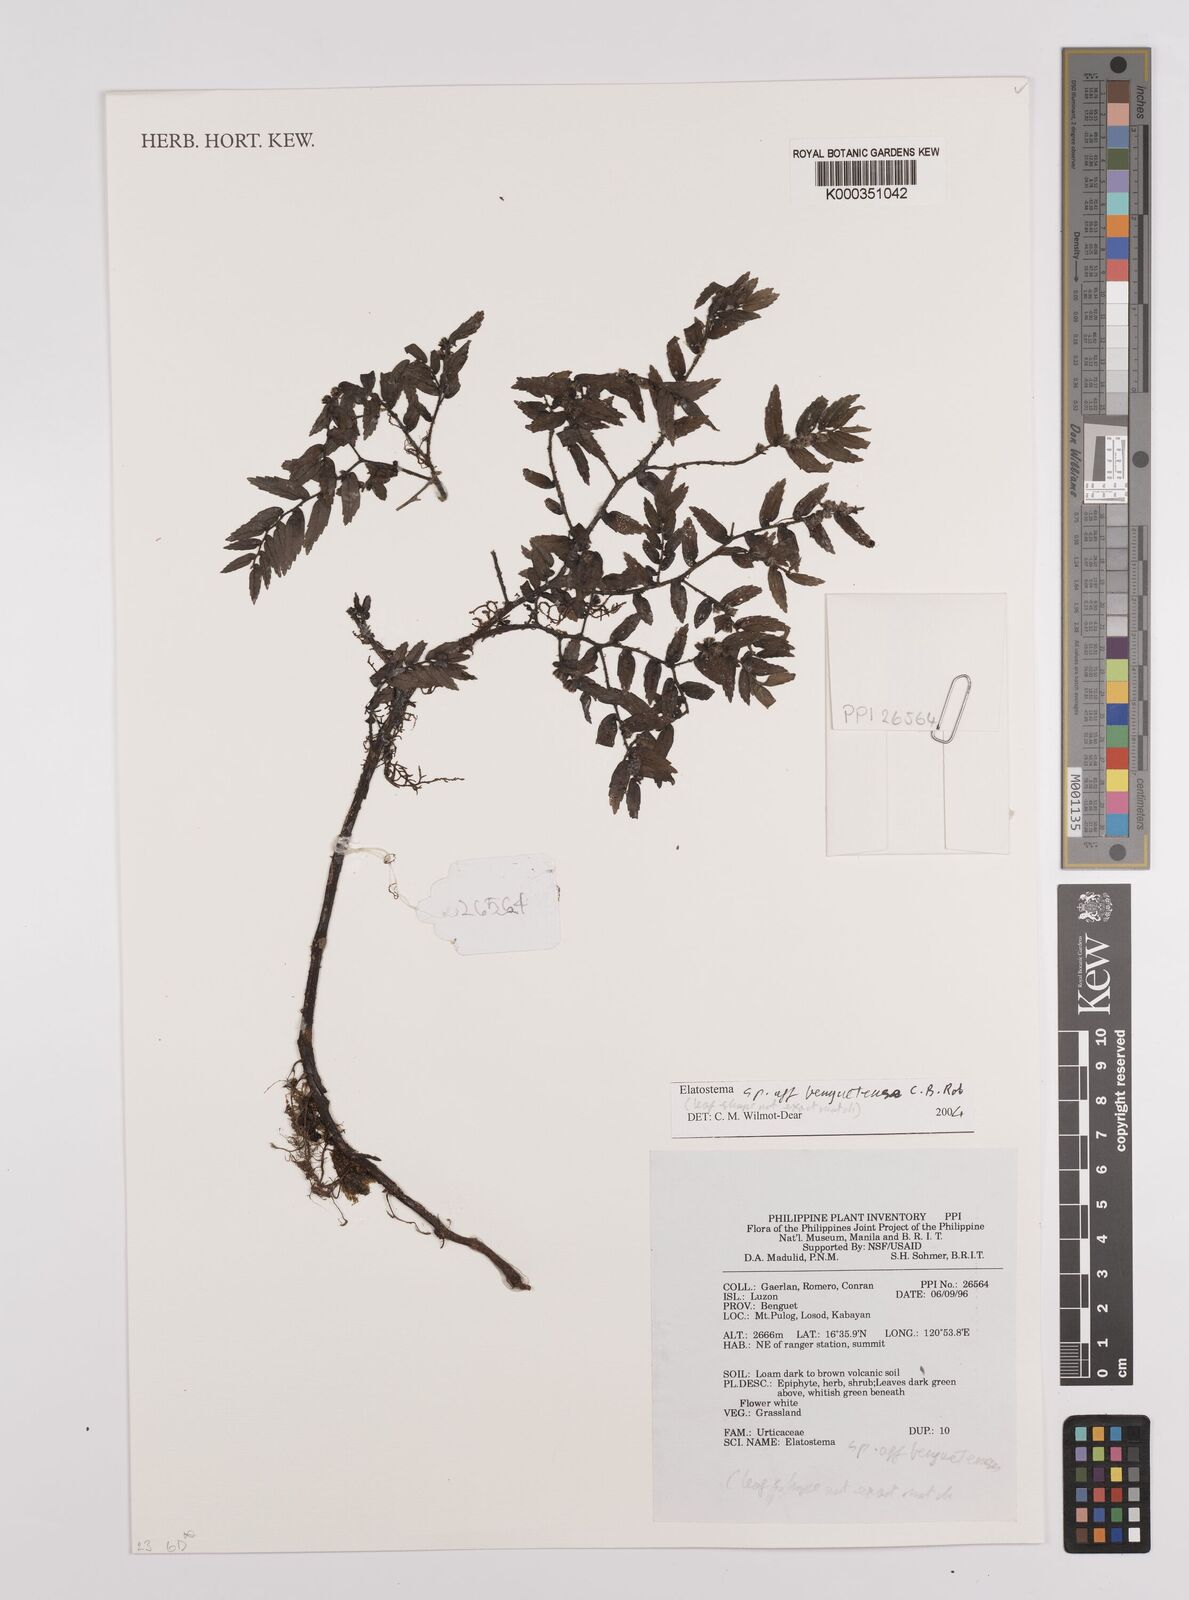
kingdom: Plantae
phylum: Tracheophyta
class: Magnoliopsida
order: Rosales
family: Urticaceae
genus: Elatostema
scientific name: Elatostema benguetense
